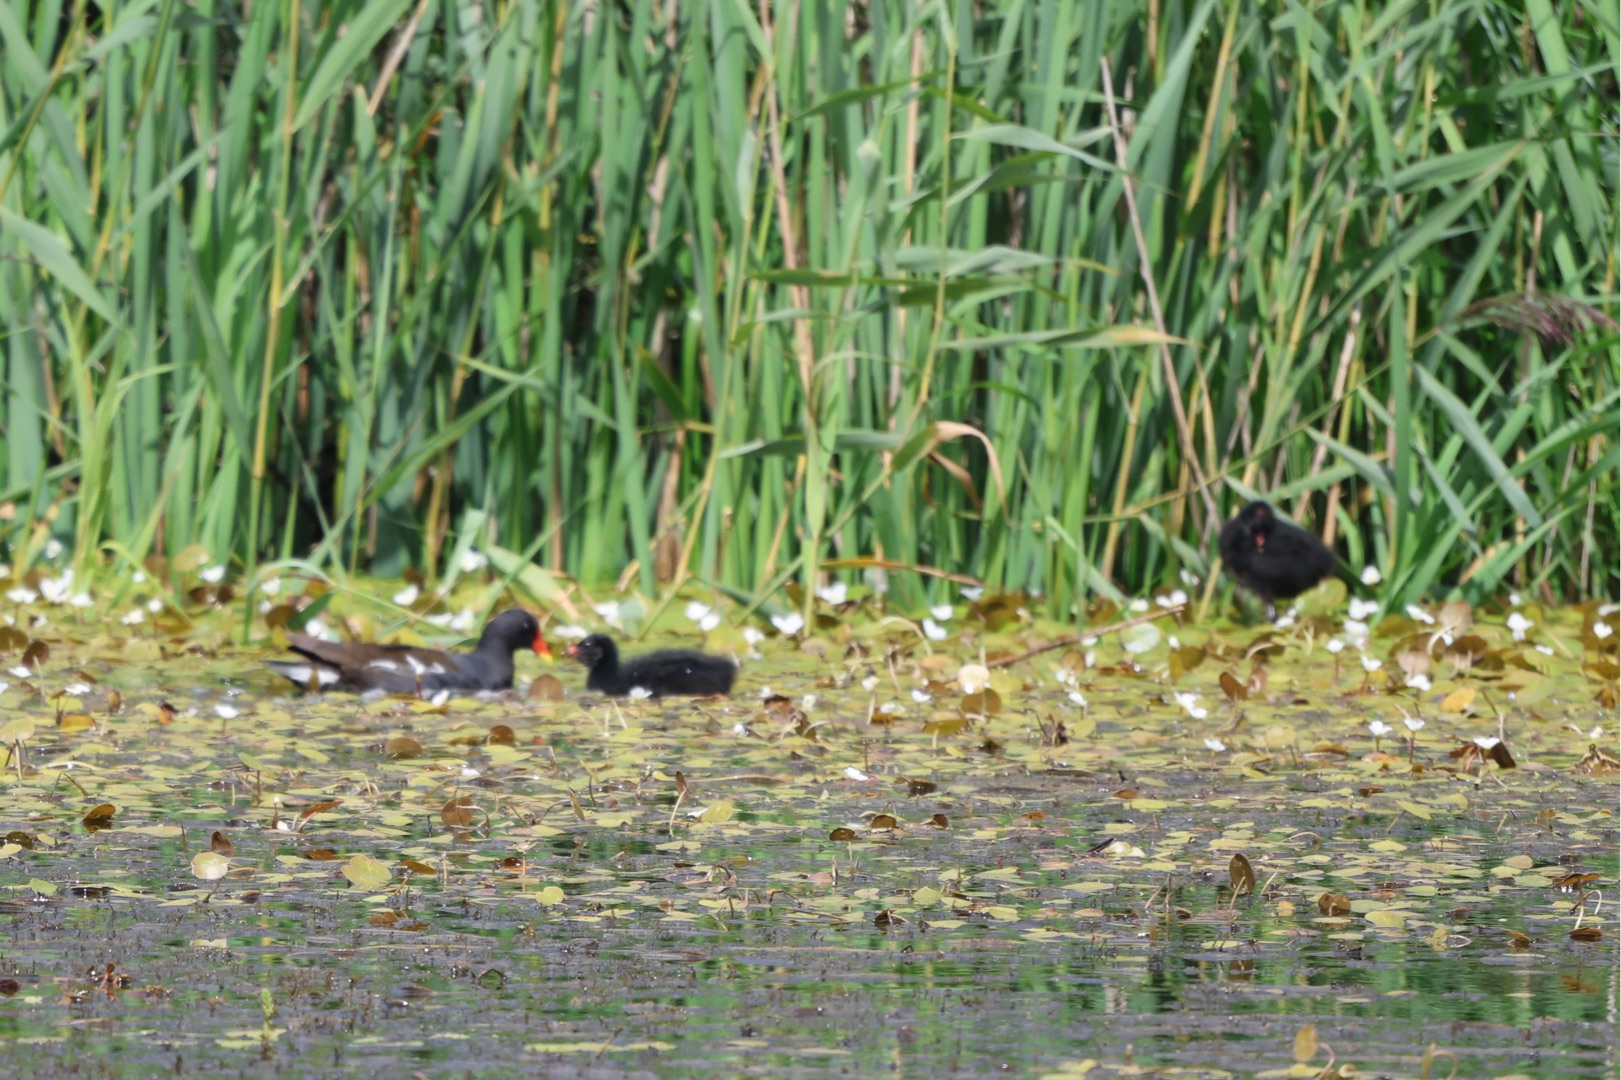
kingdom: Animalia
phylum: Chordata
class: Aves
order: Gruiformes
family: Rallidae
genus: Gallinula
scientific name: Gallinula chloropus
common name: Grønbenet rørhøne
